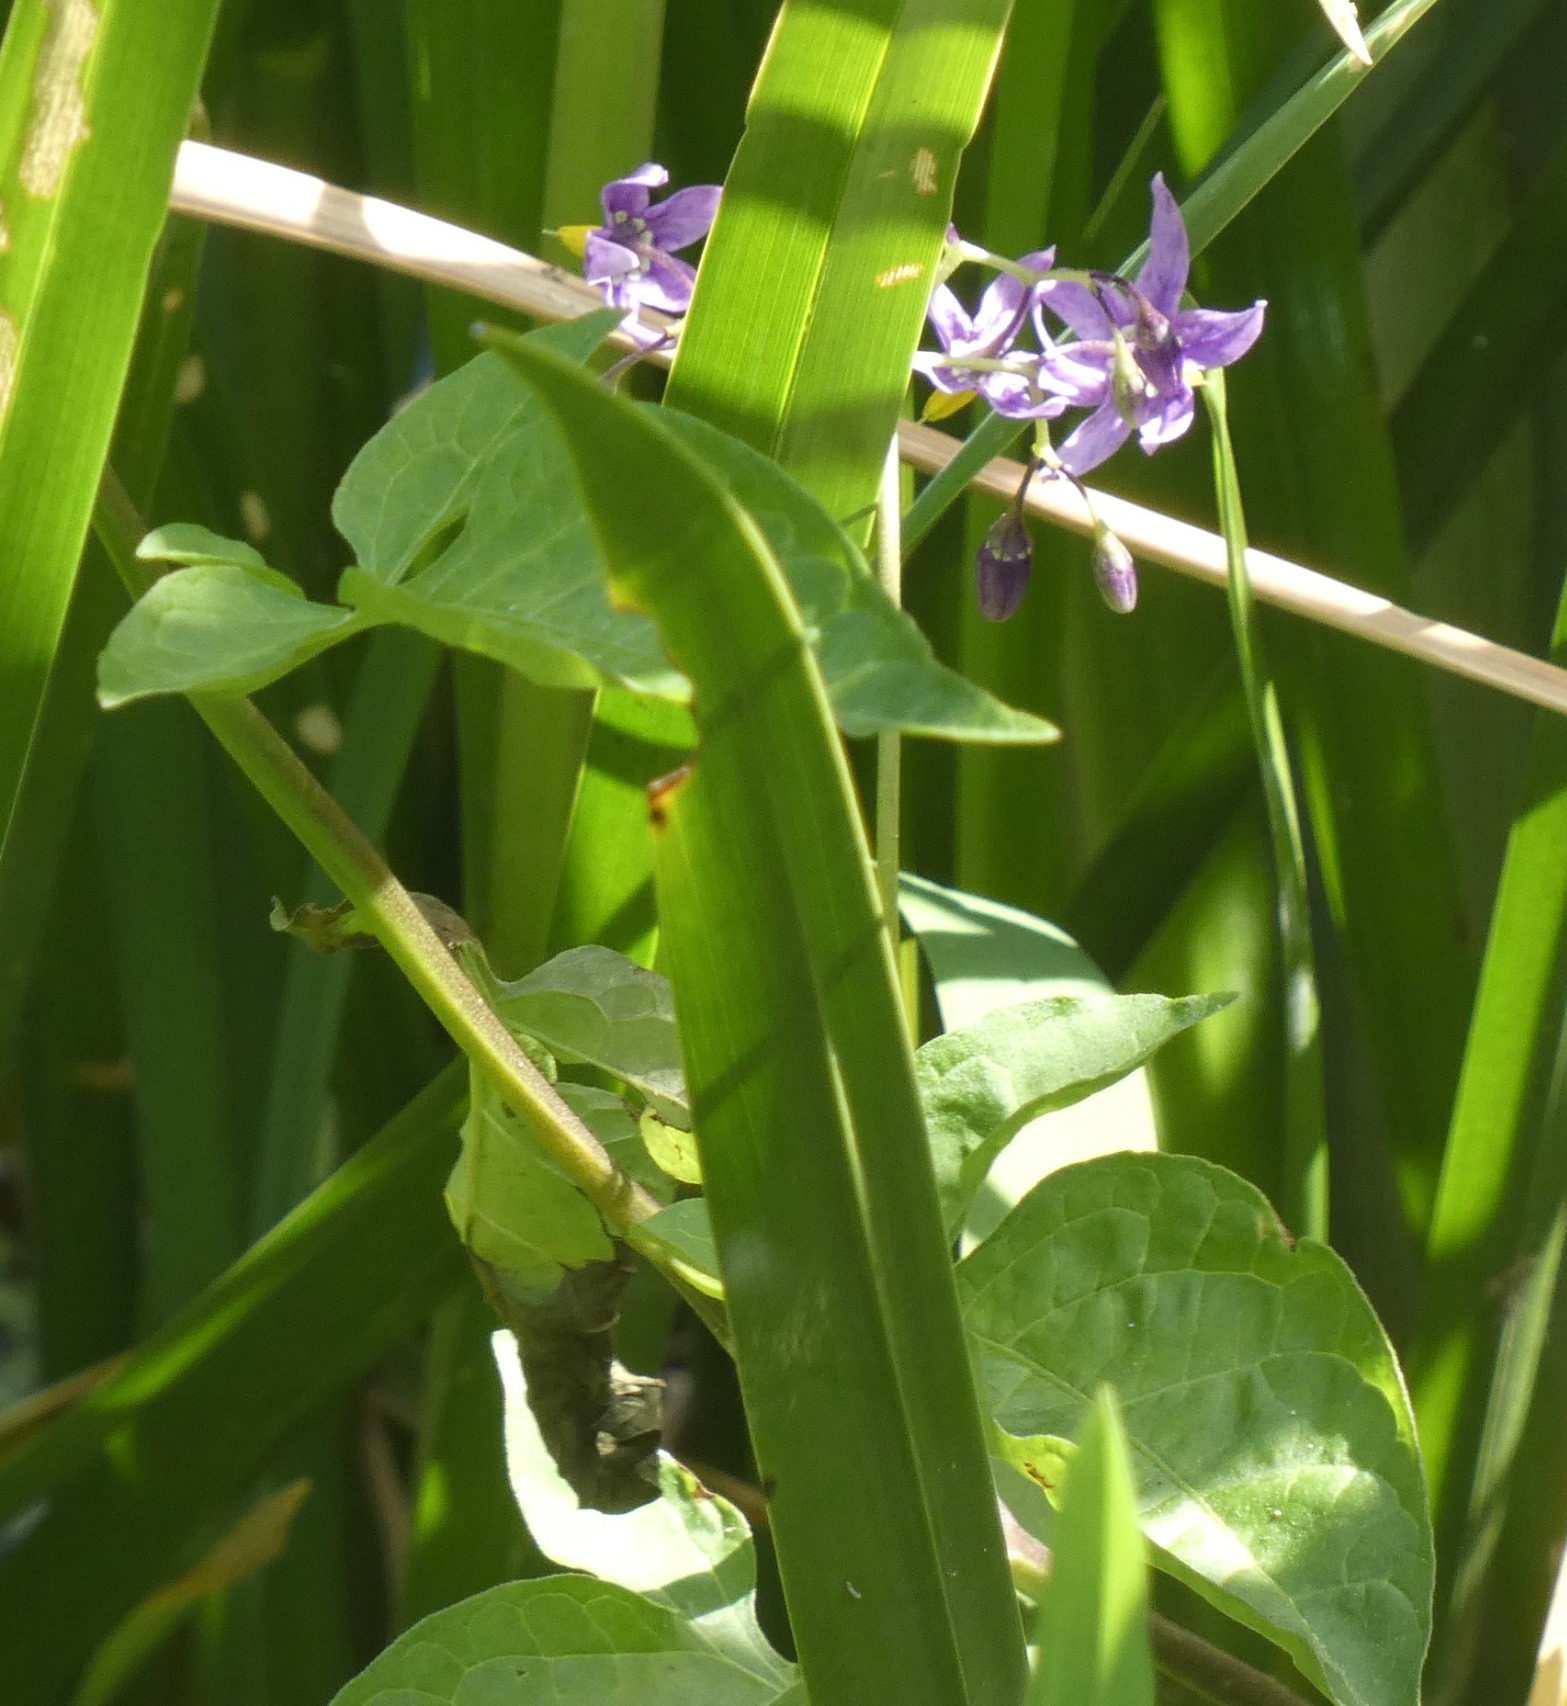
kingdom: Plantae
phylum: Tracheophyta
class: Magnoliopsida
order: Solanales
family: Solanaceae
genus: Solanum
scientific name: Solanum dulcamara
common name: Bittersød natskygge
